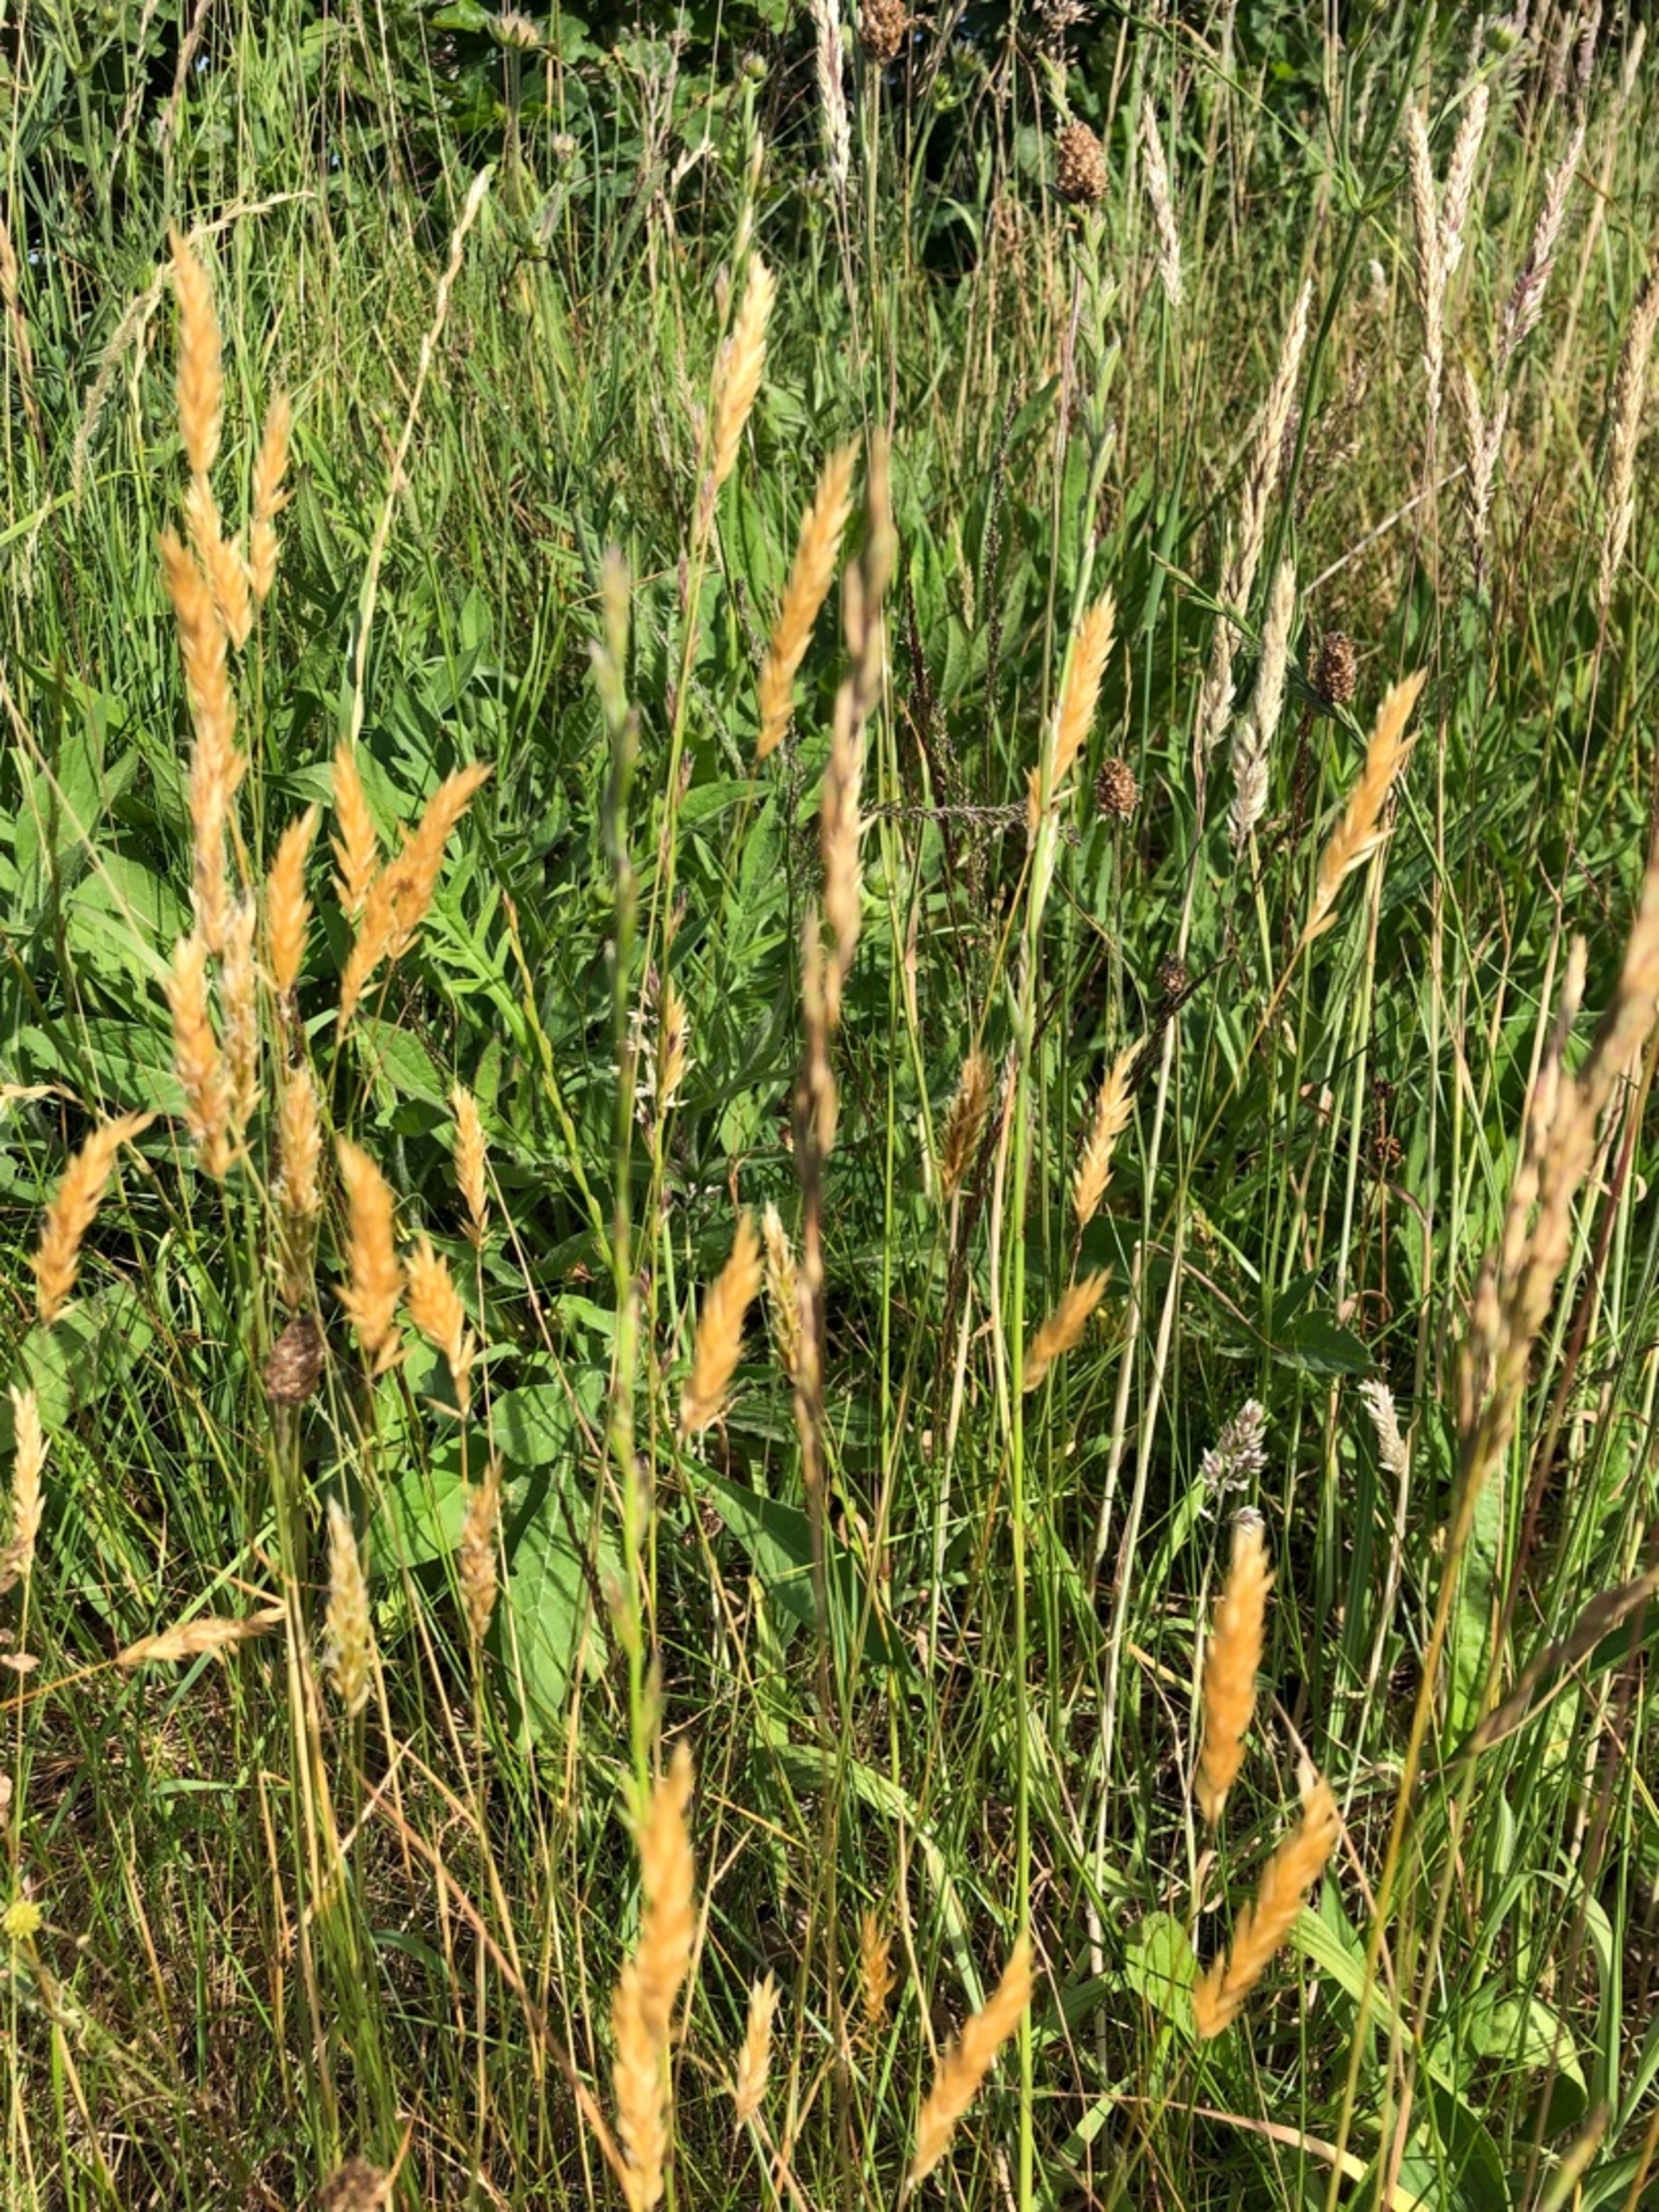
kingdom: Plantae
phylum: Tracheophyta
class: Liliopsida
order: Poales
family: Poaceae
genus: Anthoxanthum
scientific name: Anthoxanthum odoratum
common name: Vellugtende gulaks
